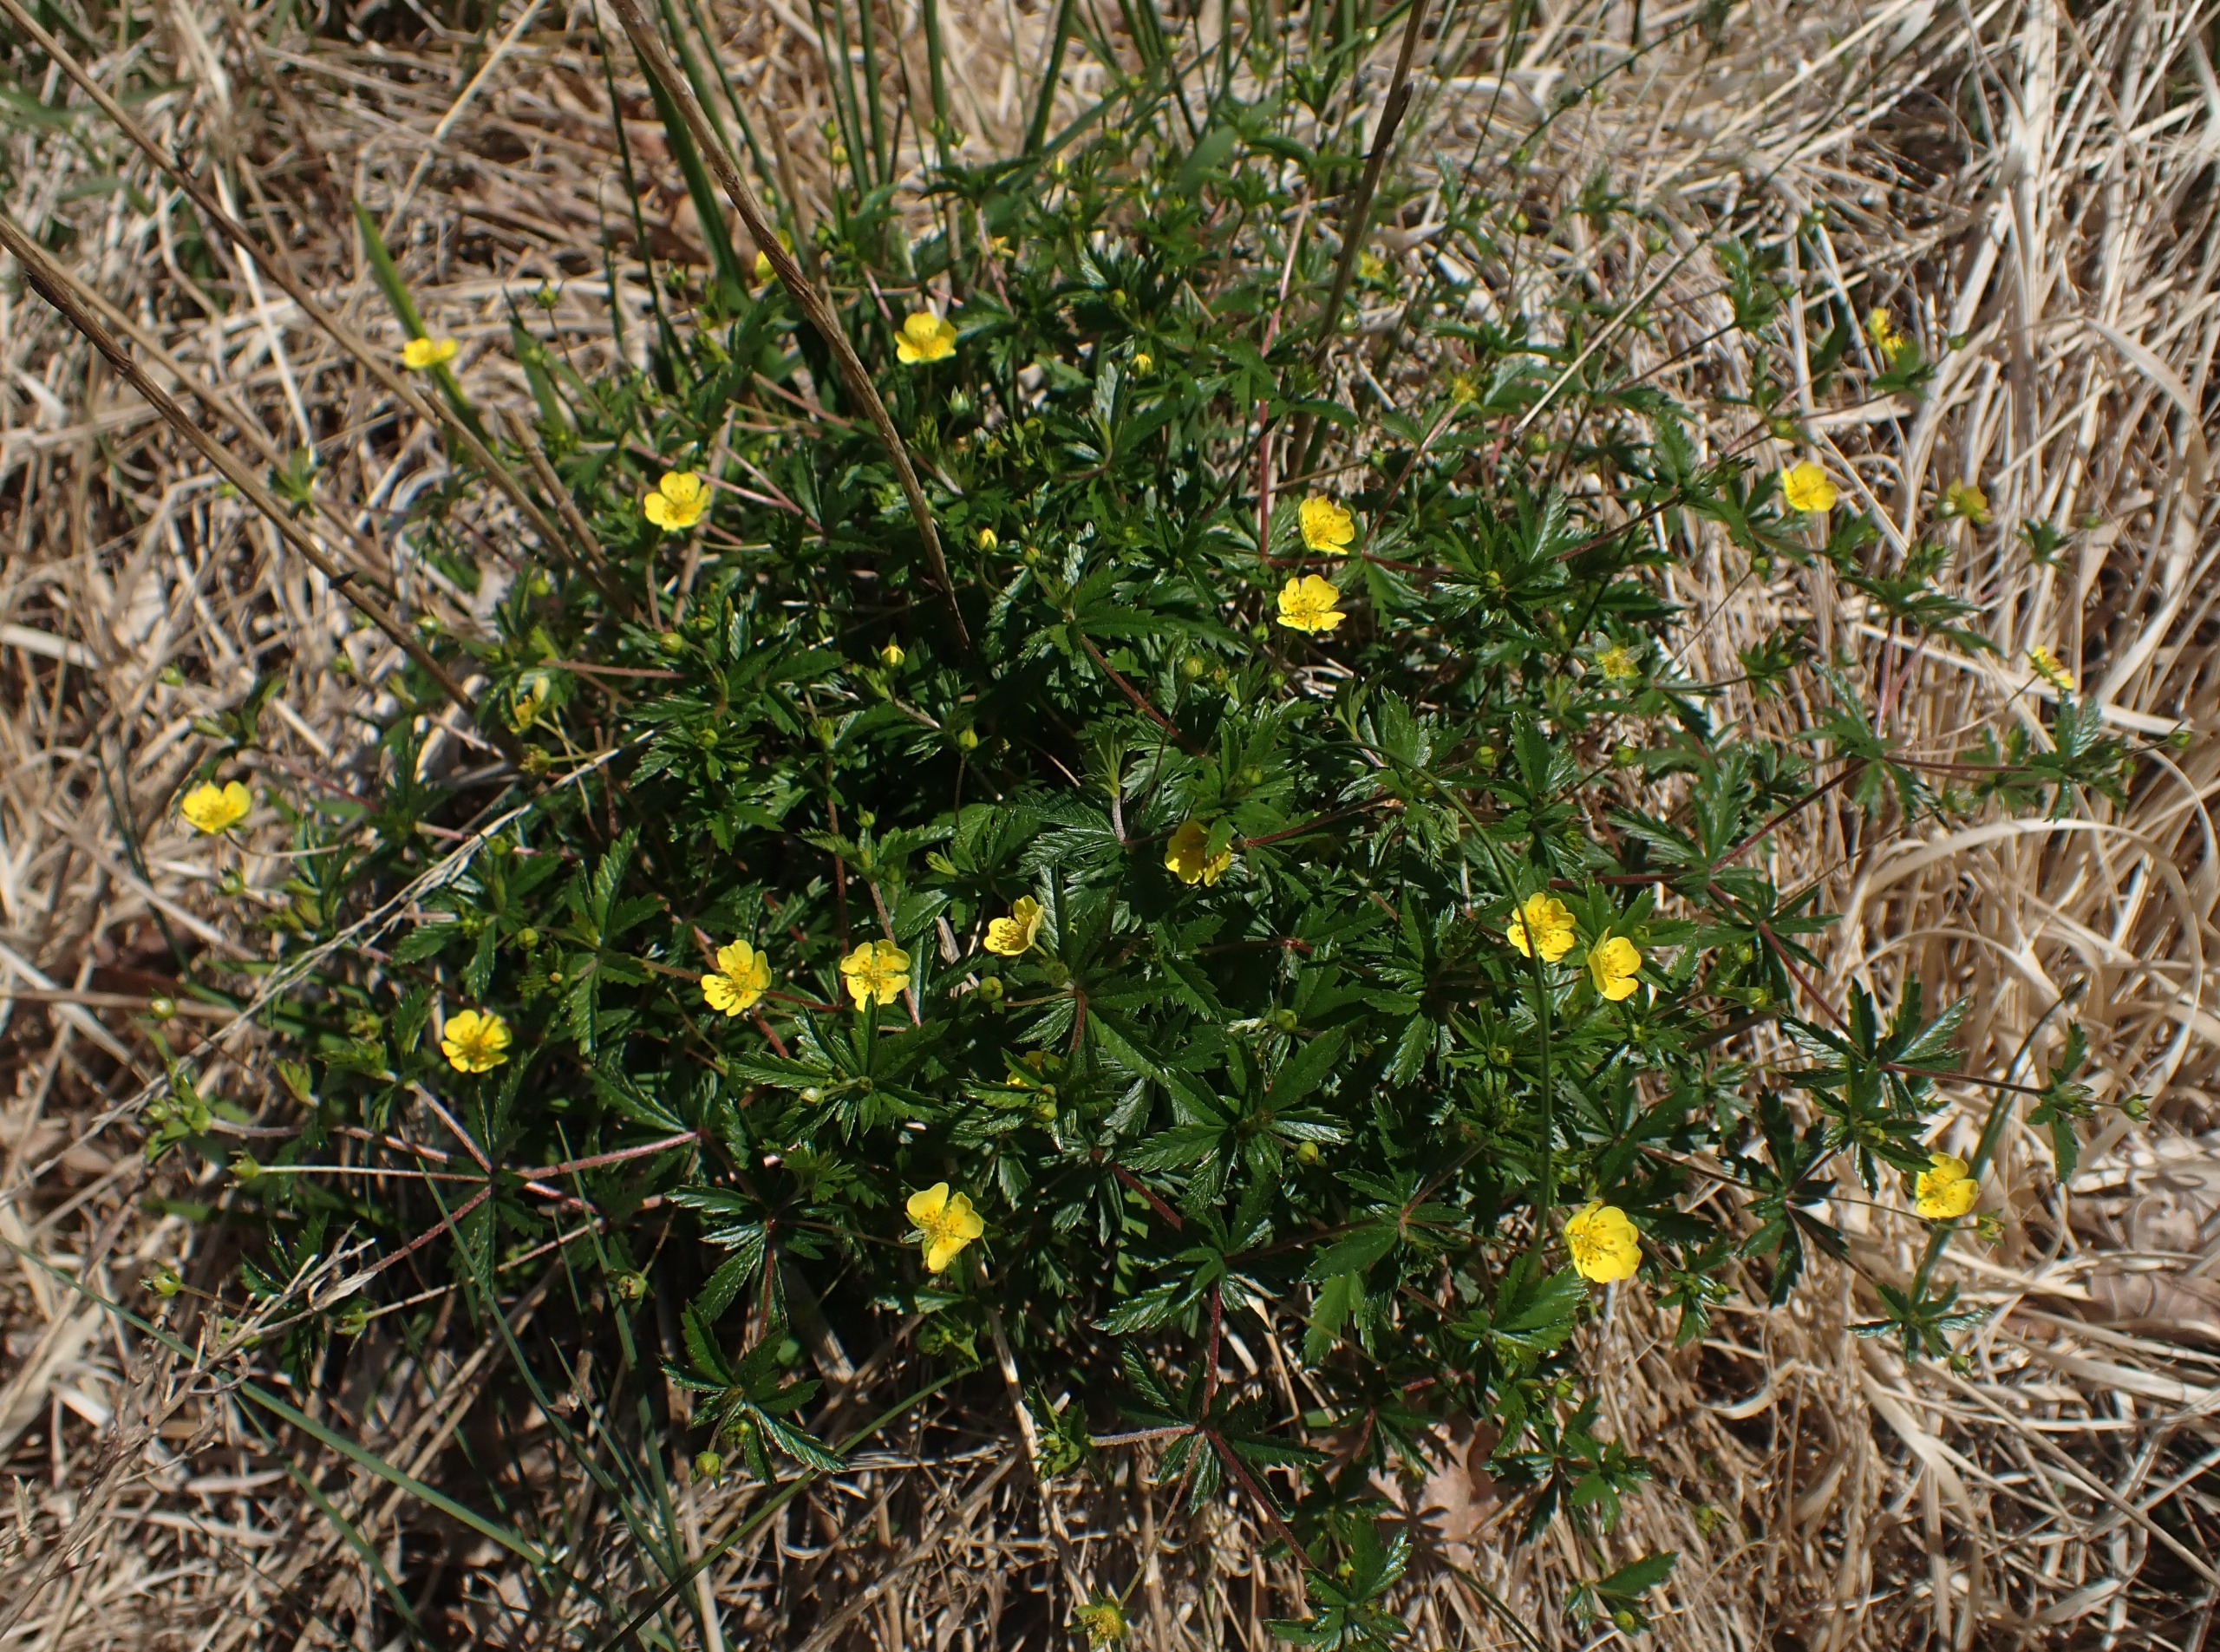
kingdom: Plantae
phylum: Tracheophyta
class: Magnoliopsida
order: Rosales
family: Rosaceae
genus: Potentilla
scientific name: Potentilla erecta
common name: Tormentil
